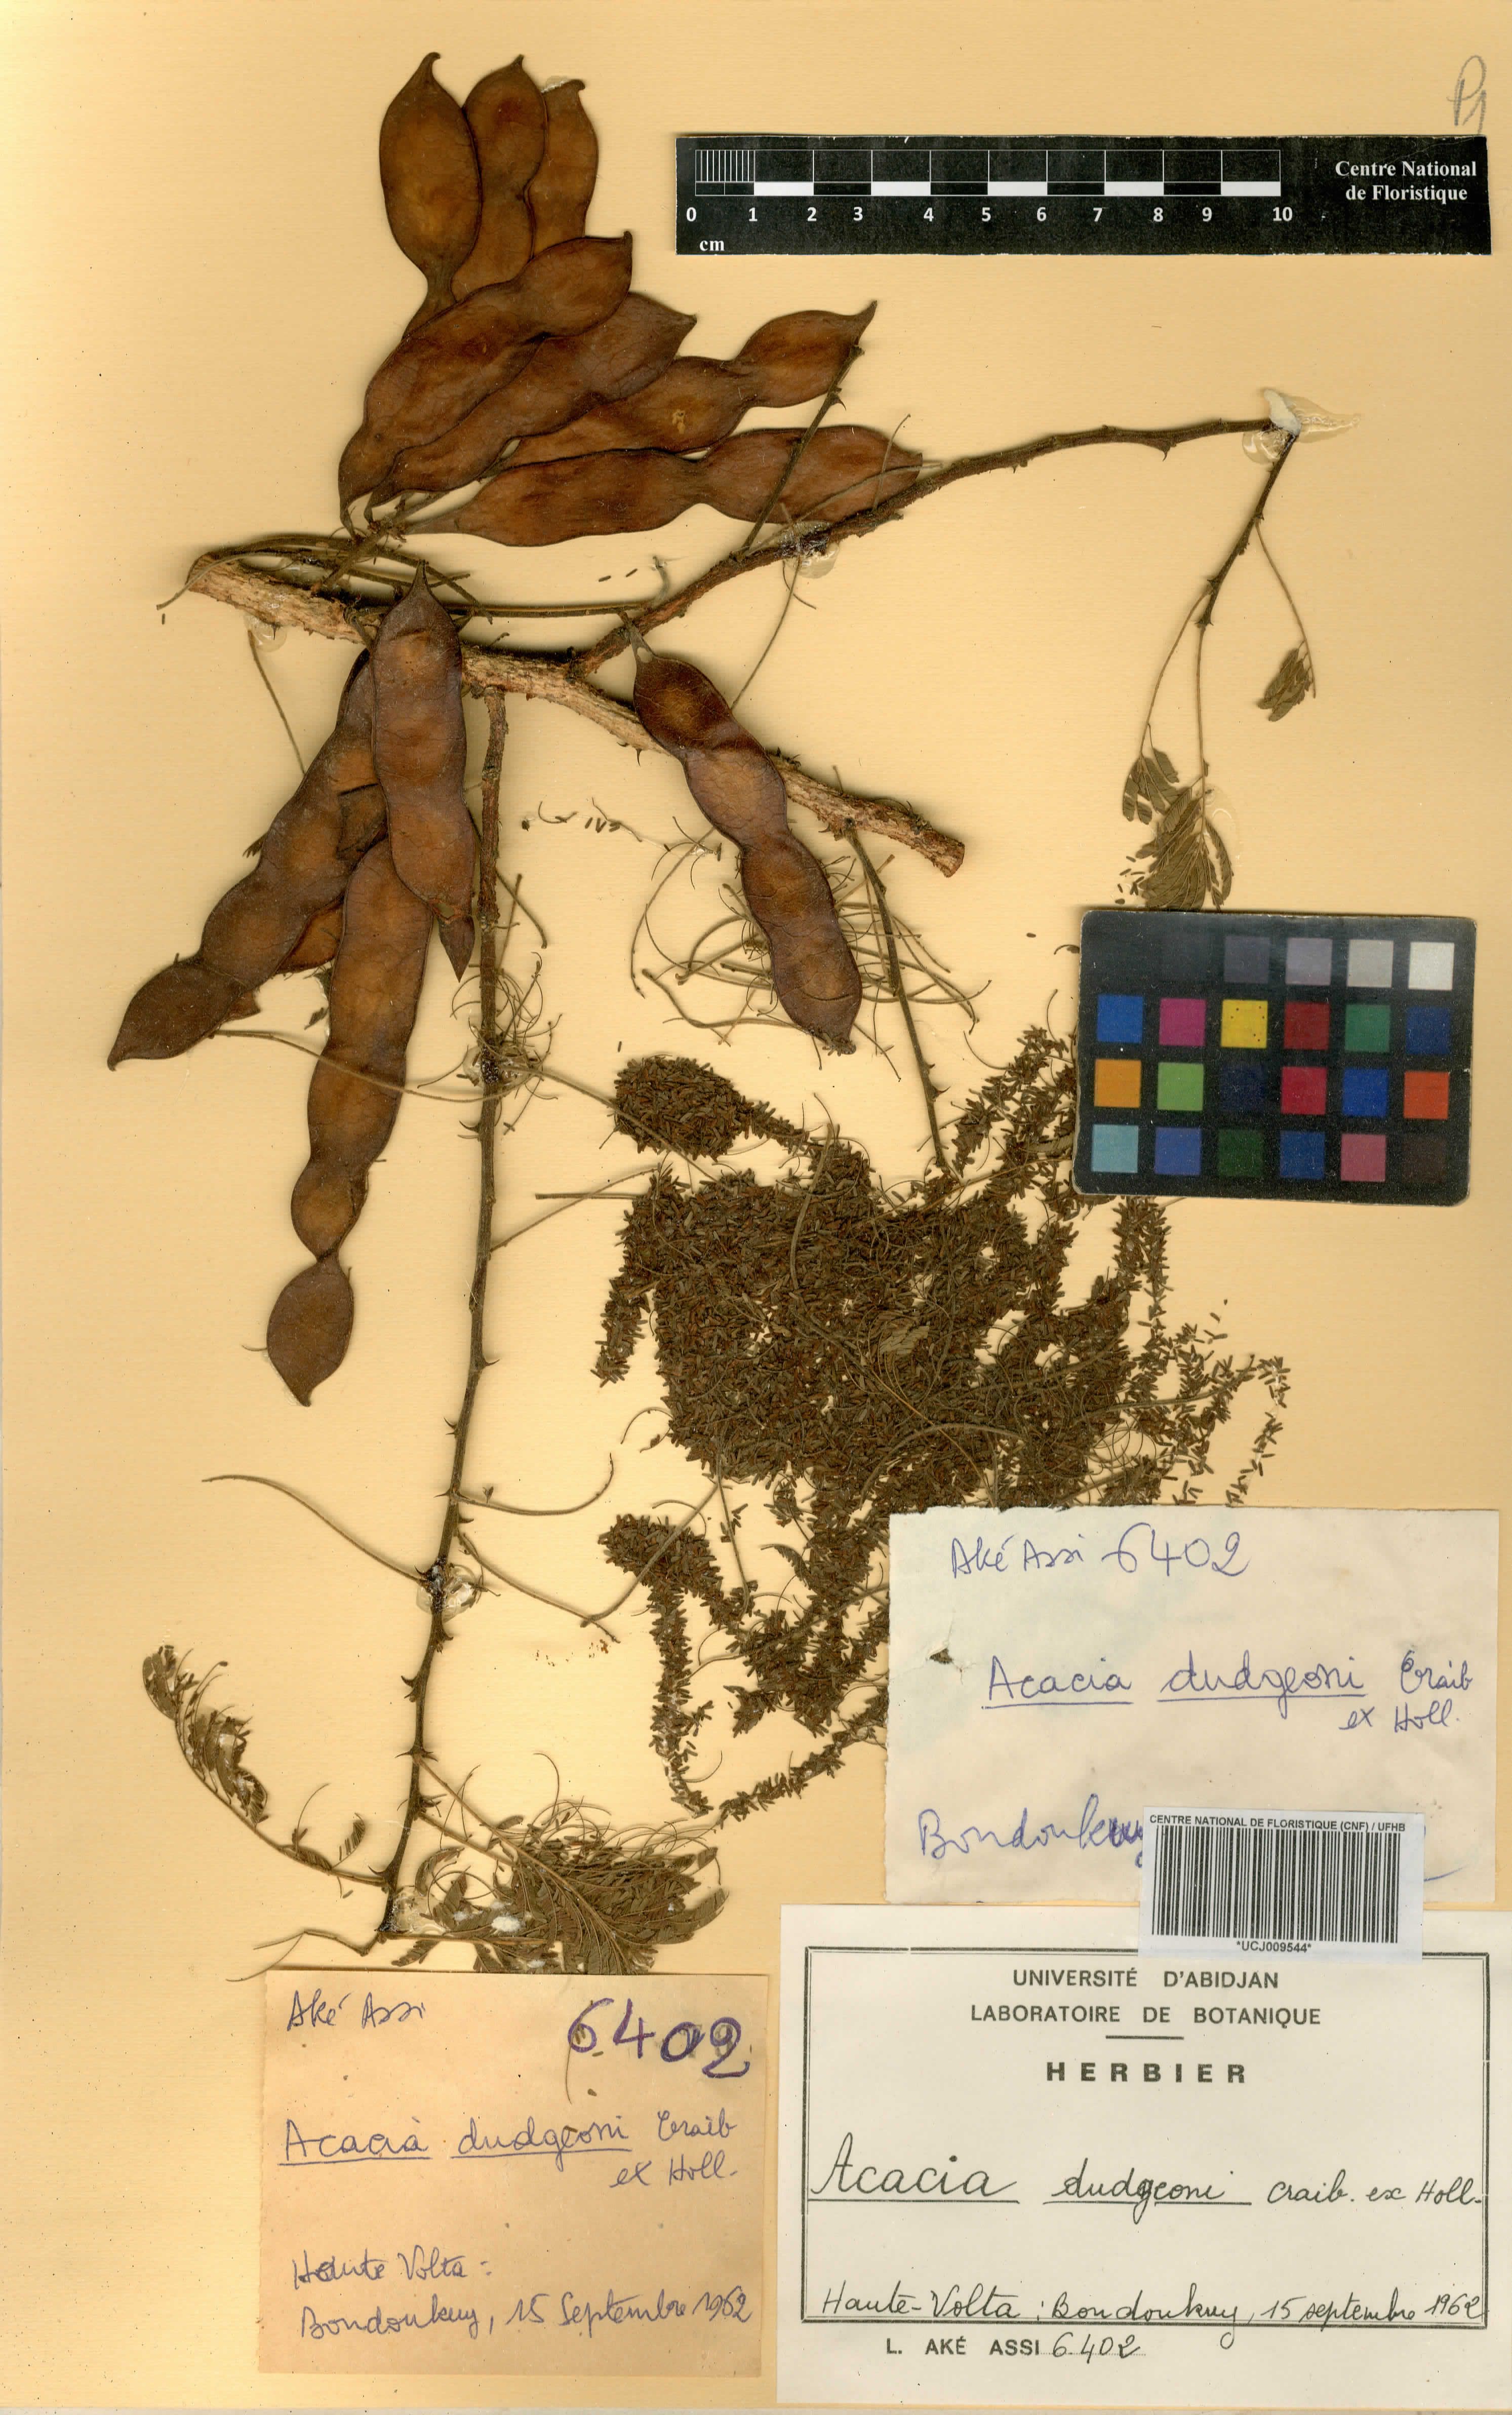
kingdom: Plantae
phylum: Tracheophyta
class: Magnoliopsida
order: Fabales
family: Fabaceae
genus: Senegalia
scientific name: Senegalia dudgeonii
